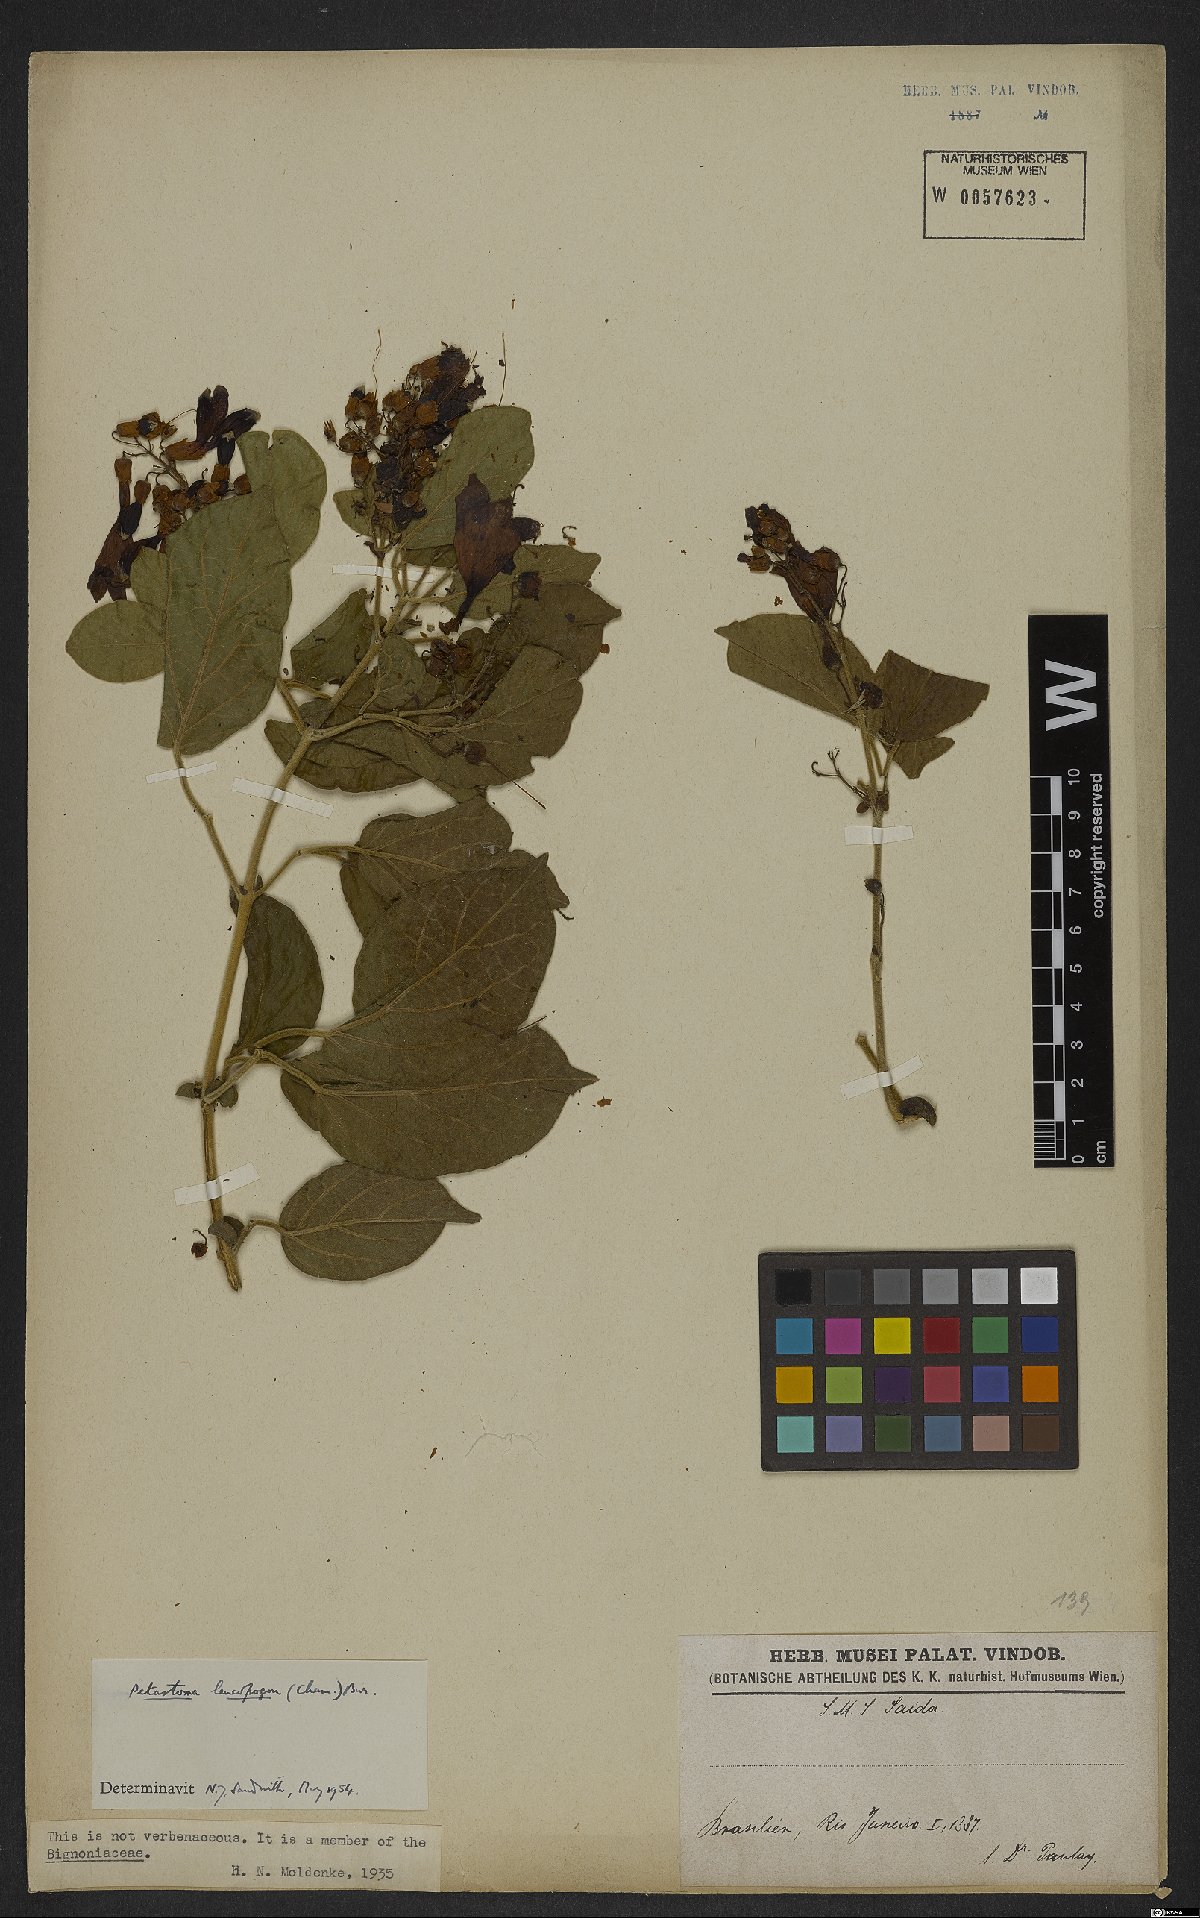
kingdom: Plantae
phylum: Tracheophyta
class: Magnoliopsida
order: Lamiales
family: Bignoniaceae
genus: Fridericia
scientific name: Fridericia leucopogon
